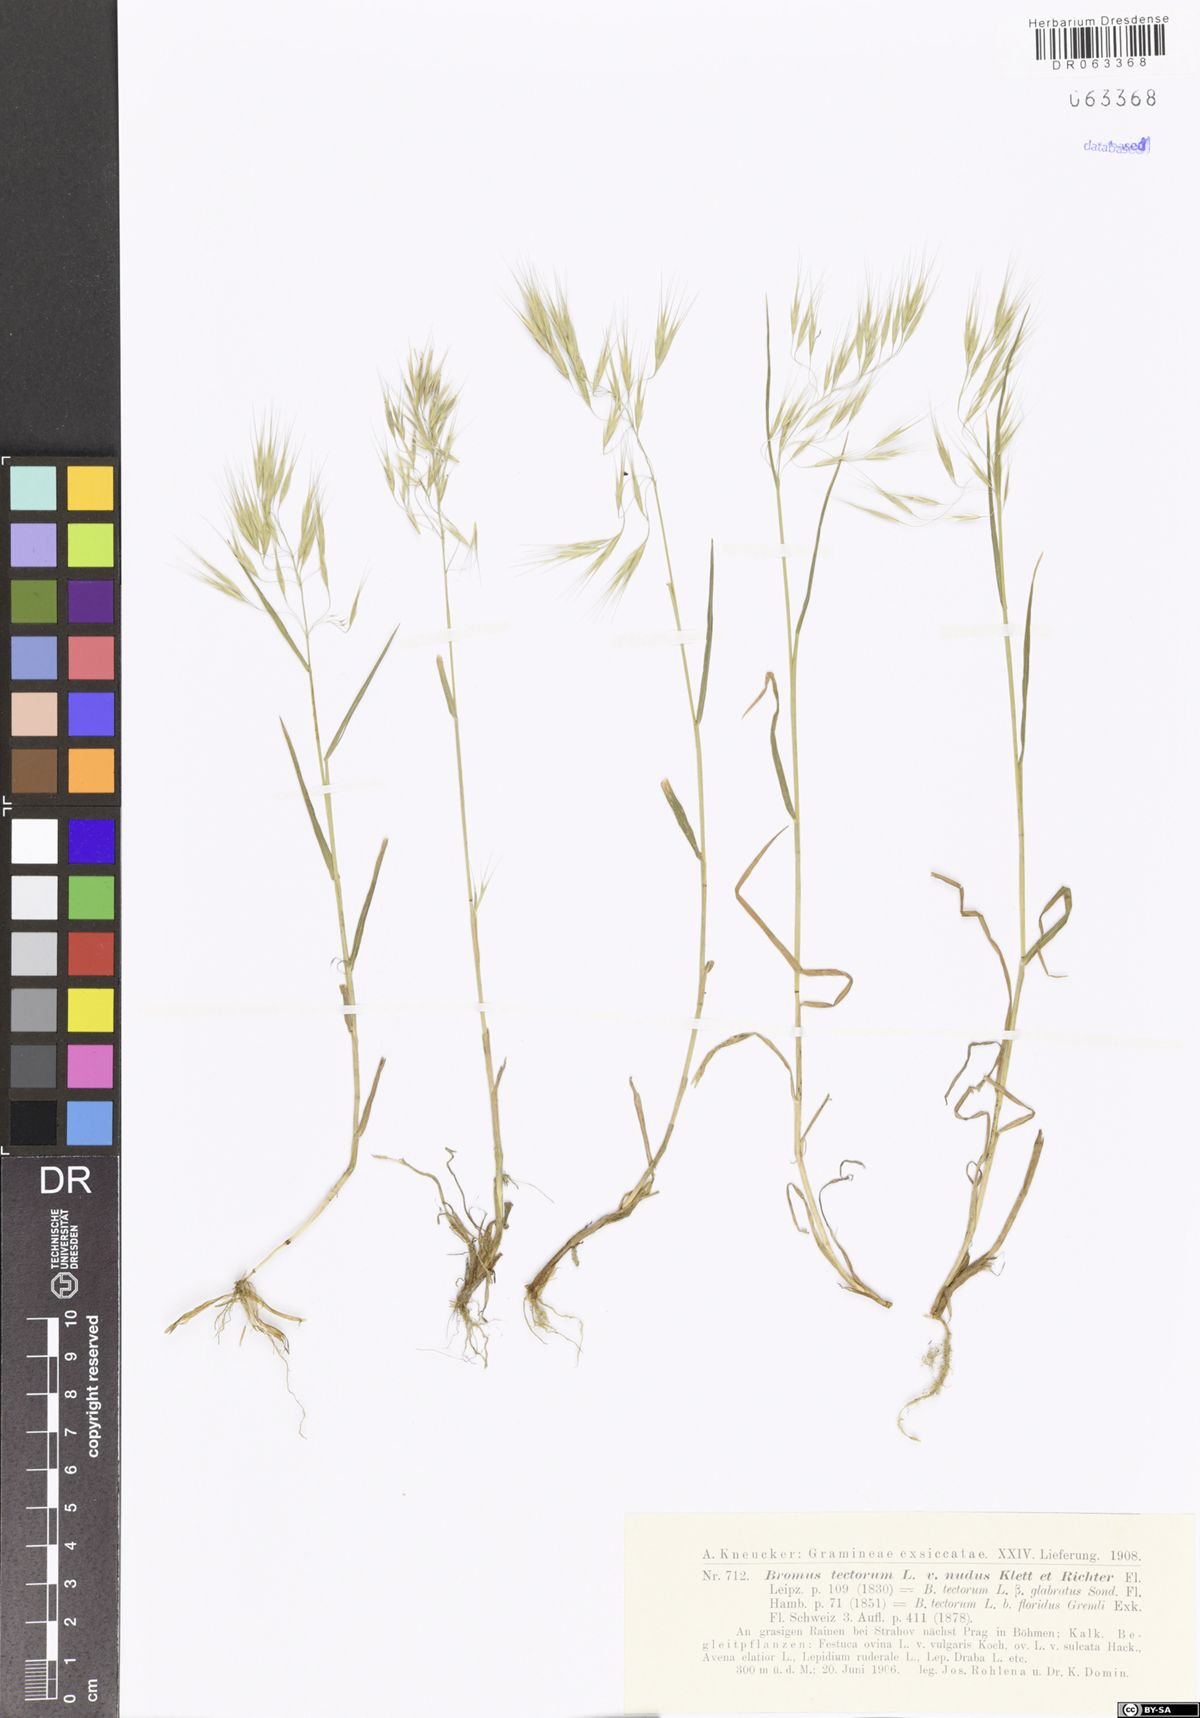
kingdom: Plantae
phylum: Tracheophyta
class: Liliopsida
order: Poales
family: Poaceae
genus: Bromus
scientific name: Bromus tectorum
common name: Cheatgrass
